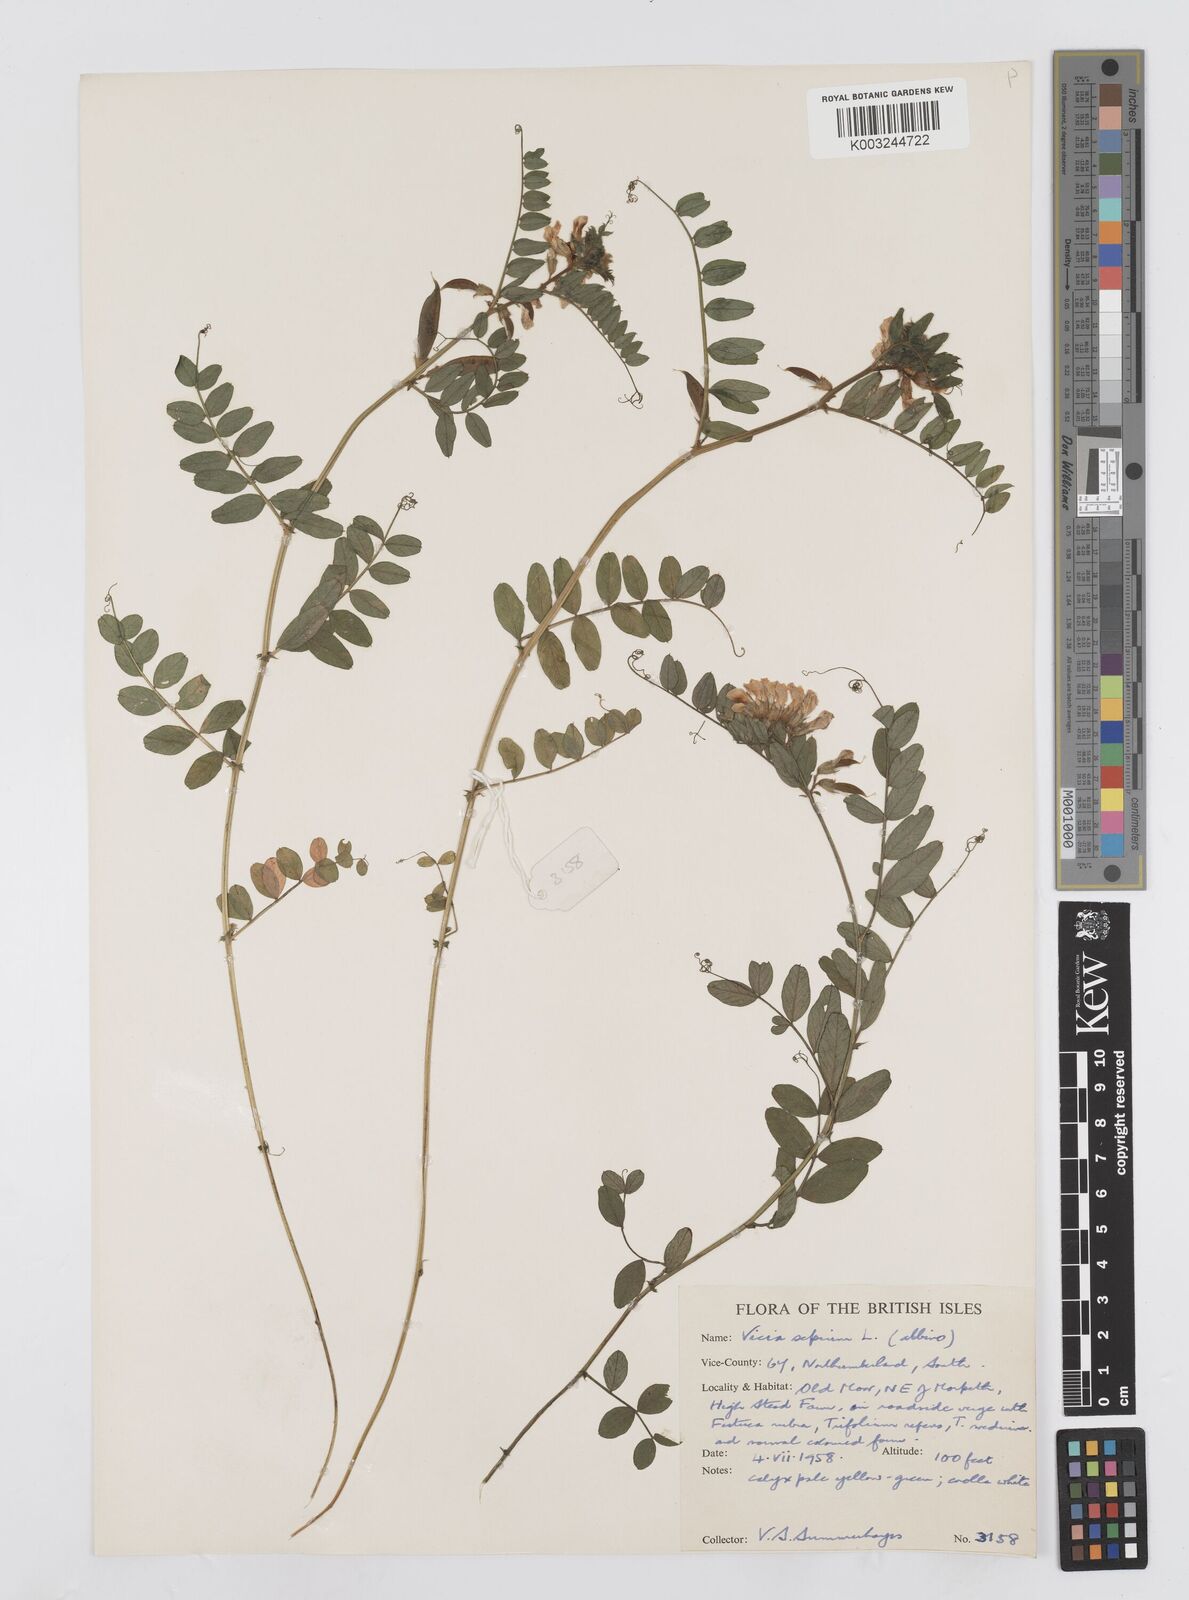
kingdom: Plantae
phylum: Tracheophyta
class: Magnoliopsida
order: Fabales
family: Fabaceae
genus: Vicia
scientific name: Vicia sepium
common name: Bush vetch
